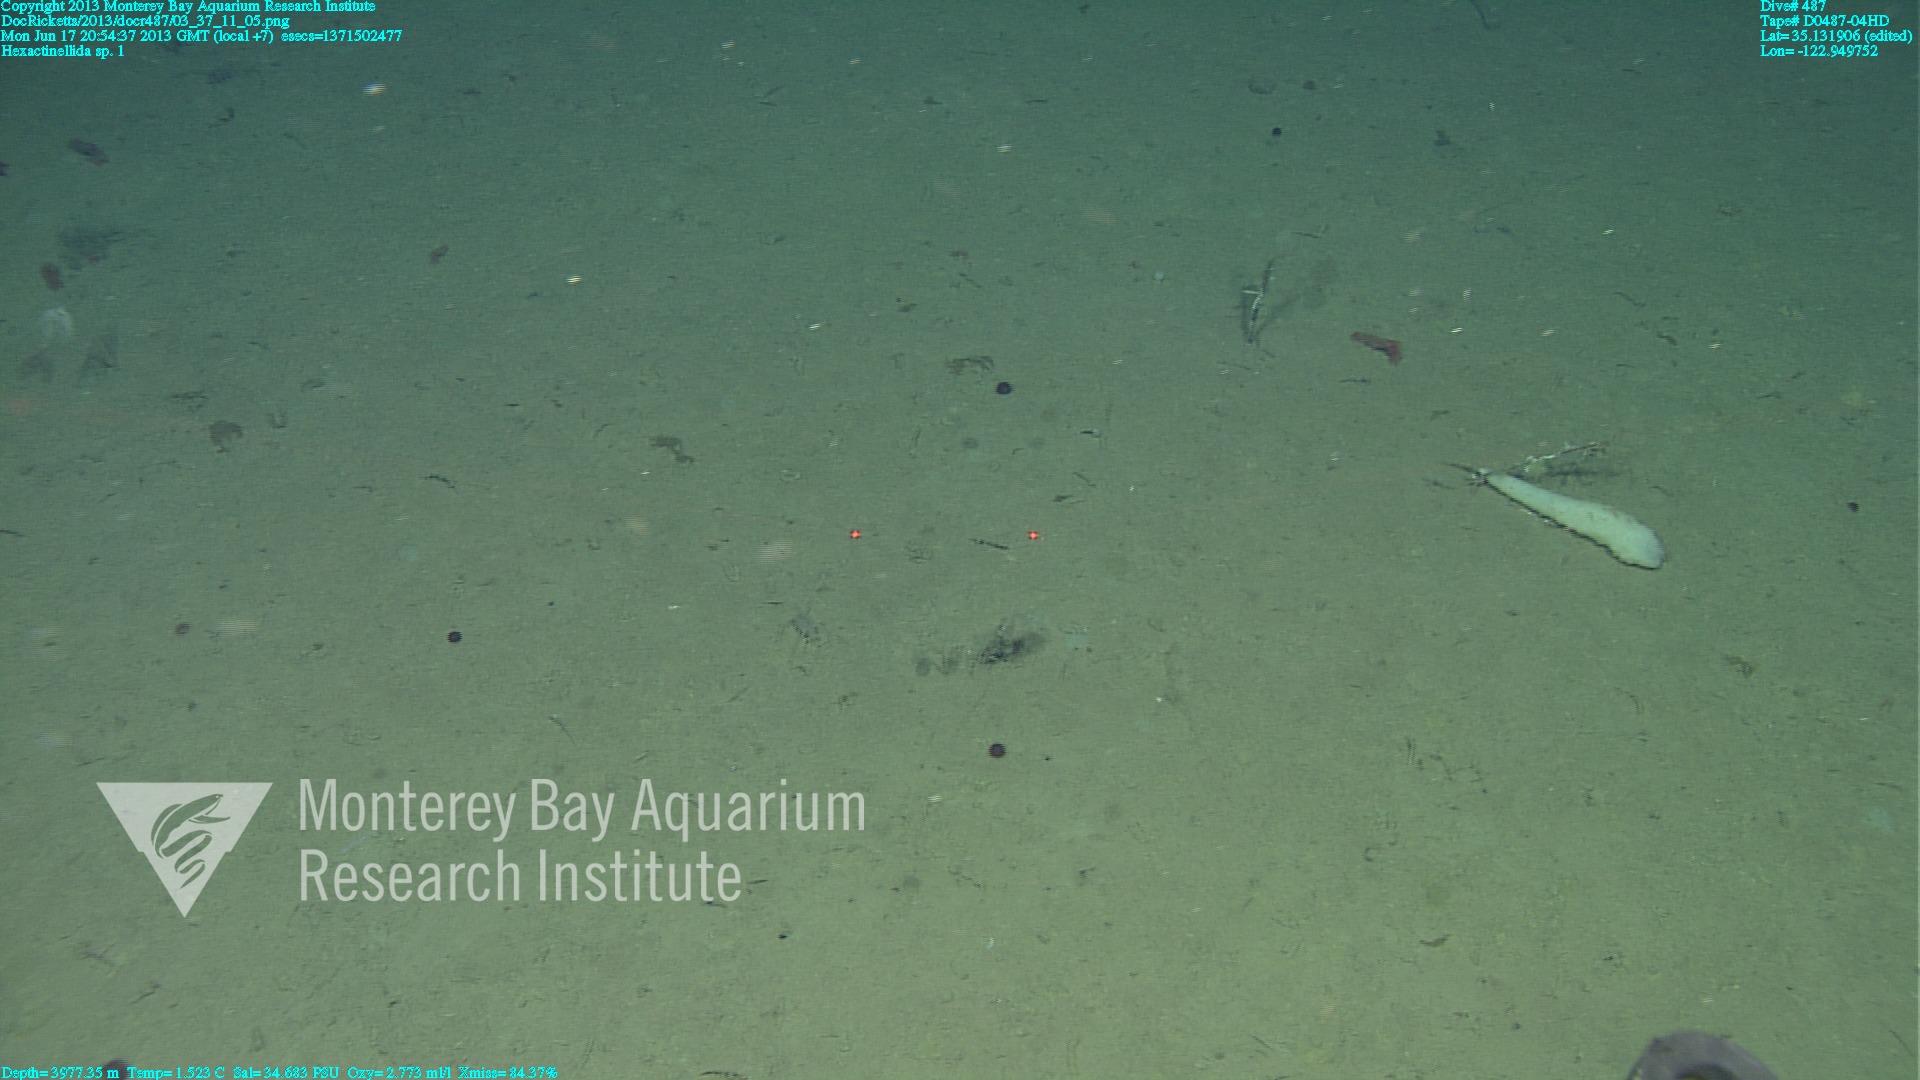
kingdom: Animalia
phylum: Porifera
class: Hexactinellida
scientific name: Hexactinellida
